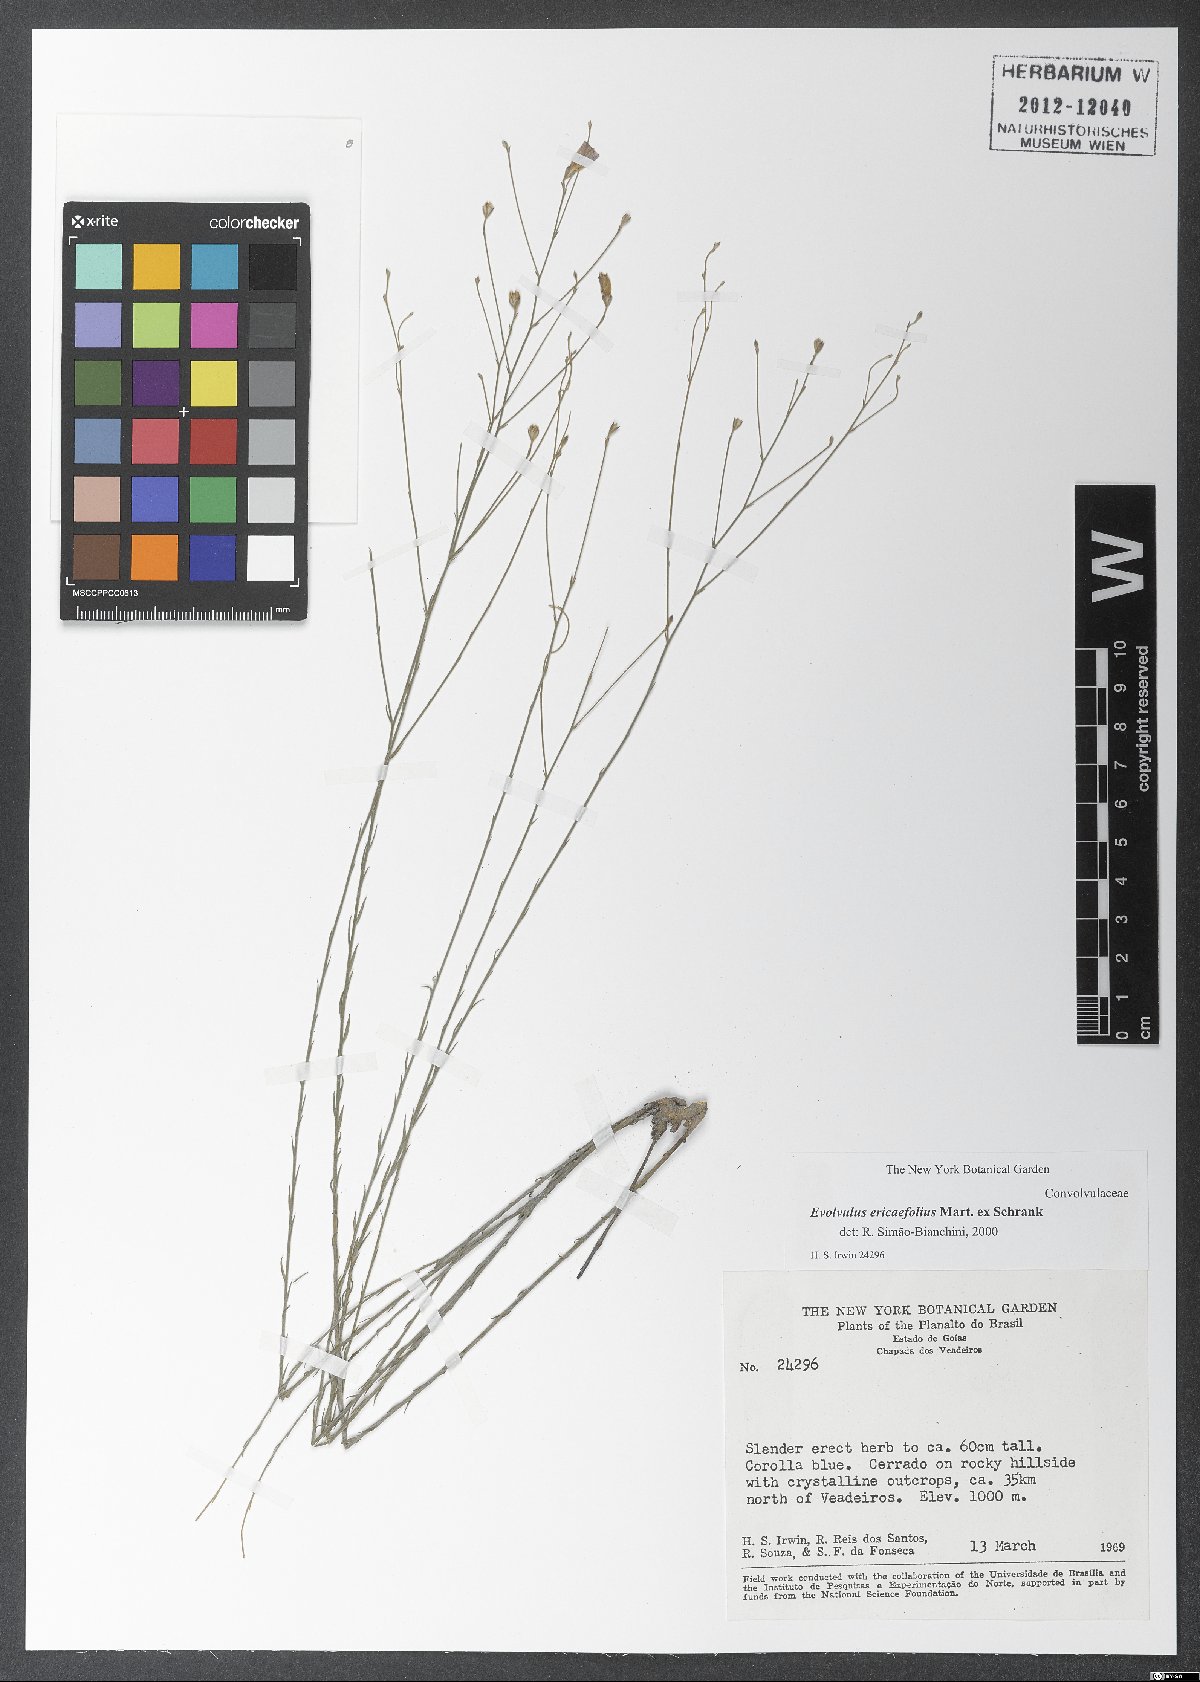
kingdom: Plantae
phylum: Tracheophyta
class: Magnoliopsida
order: Solanales
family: Convolvulaceae
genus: Evolvulus
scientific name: Evolvulus ericifolius
